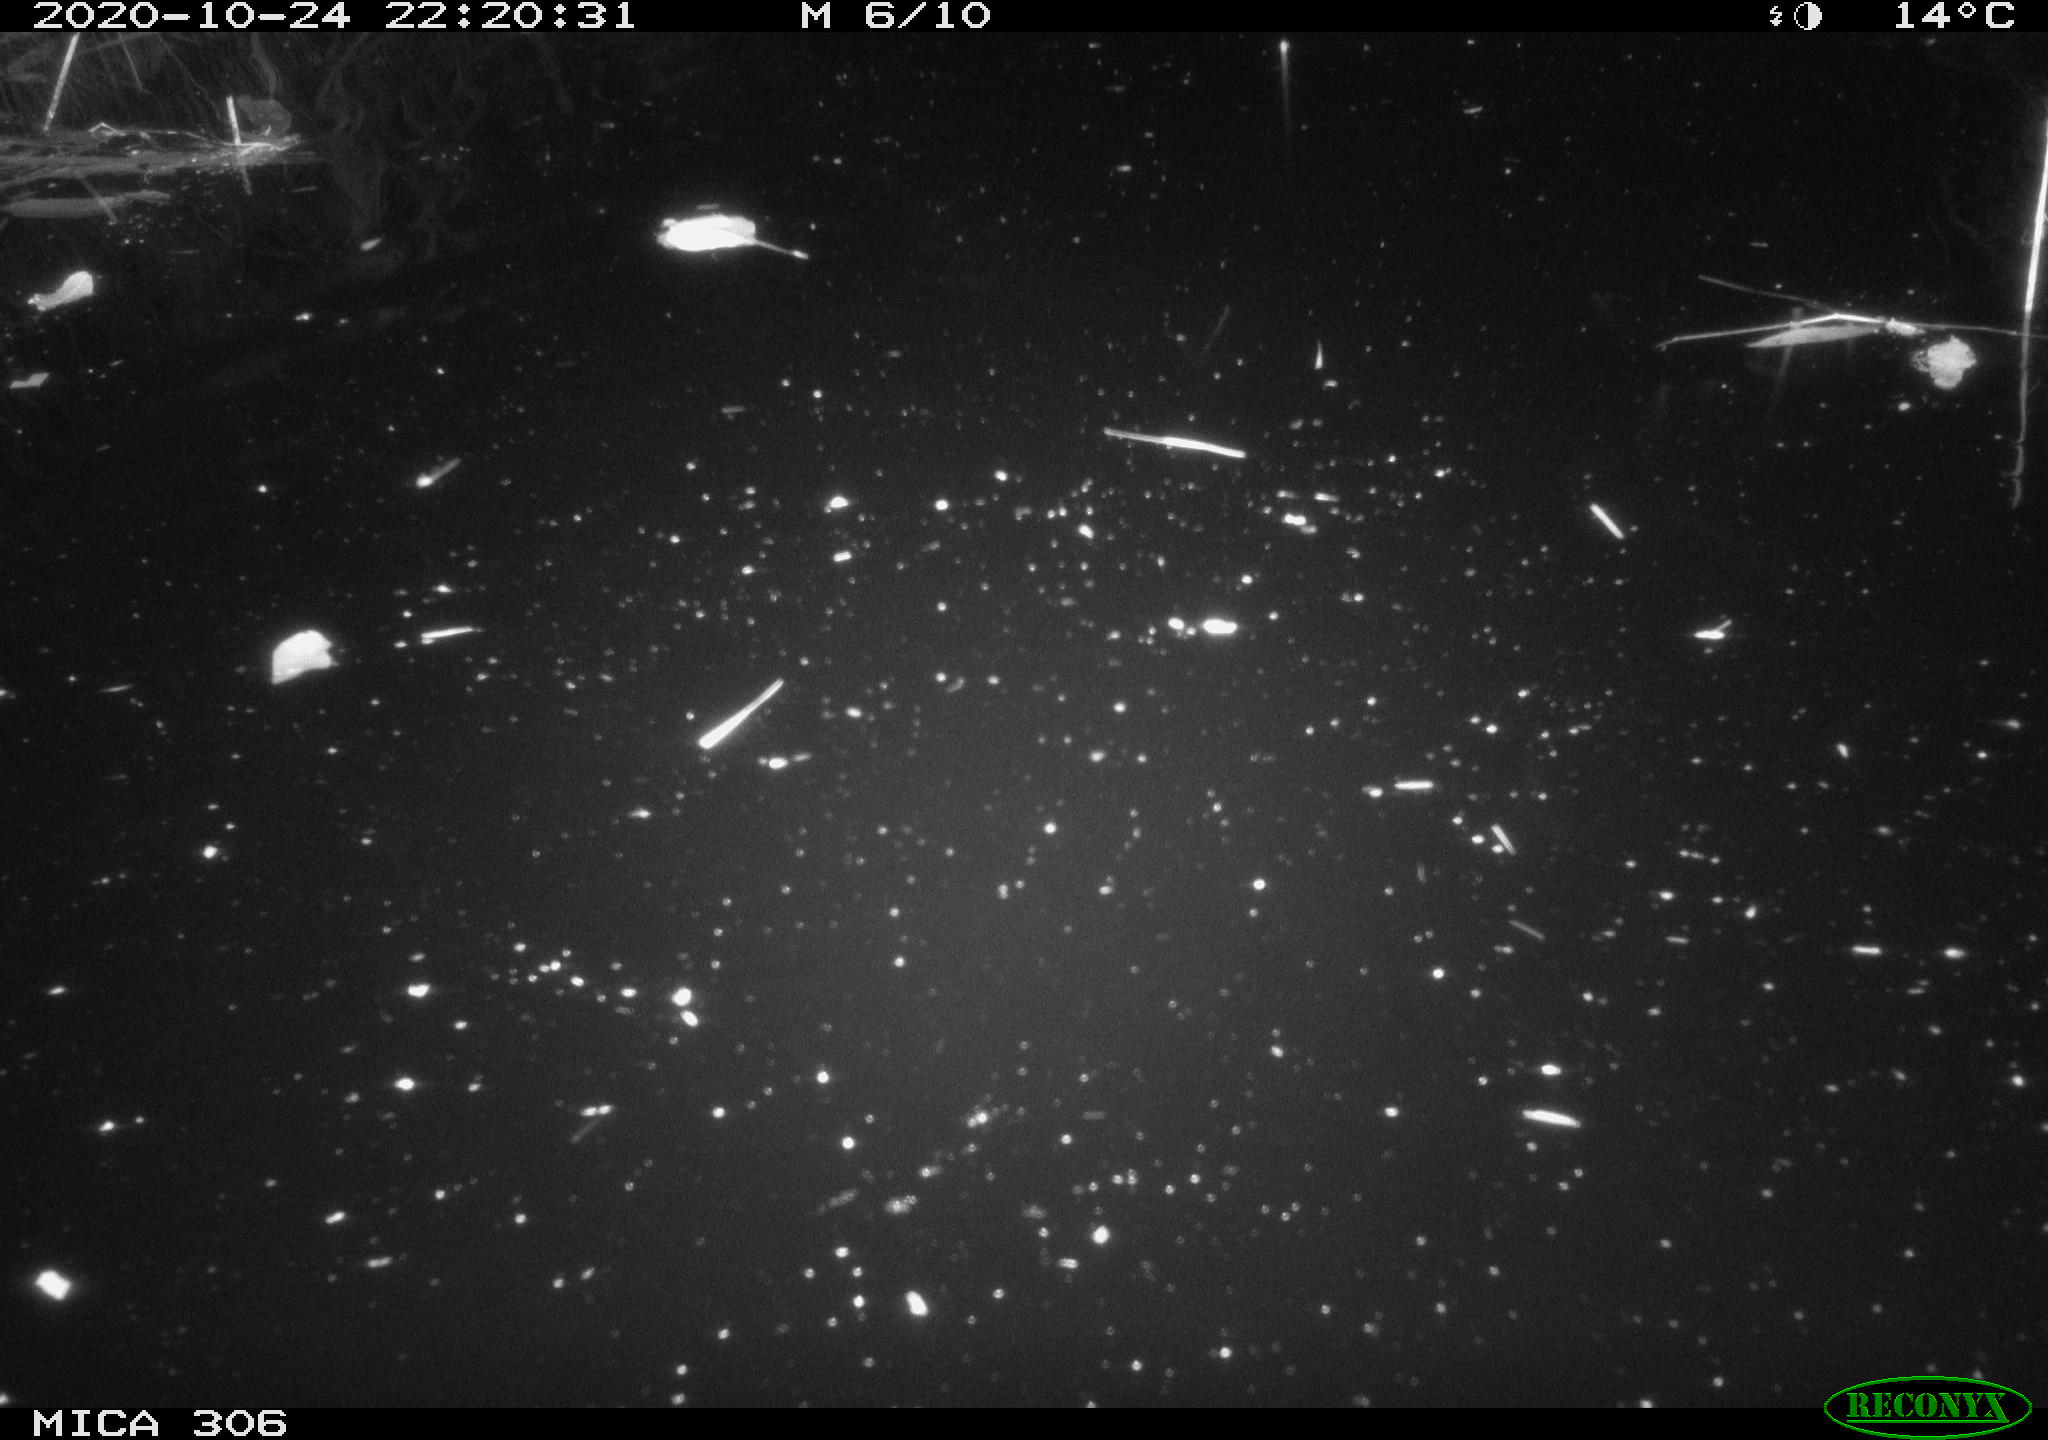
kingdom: Animalia
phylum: Chordata
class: Mammalia
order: Rodentia
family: Muridae
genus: Rattus
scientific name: Rattus norvegicus
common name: Brown rat
